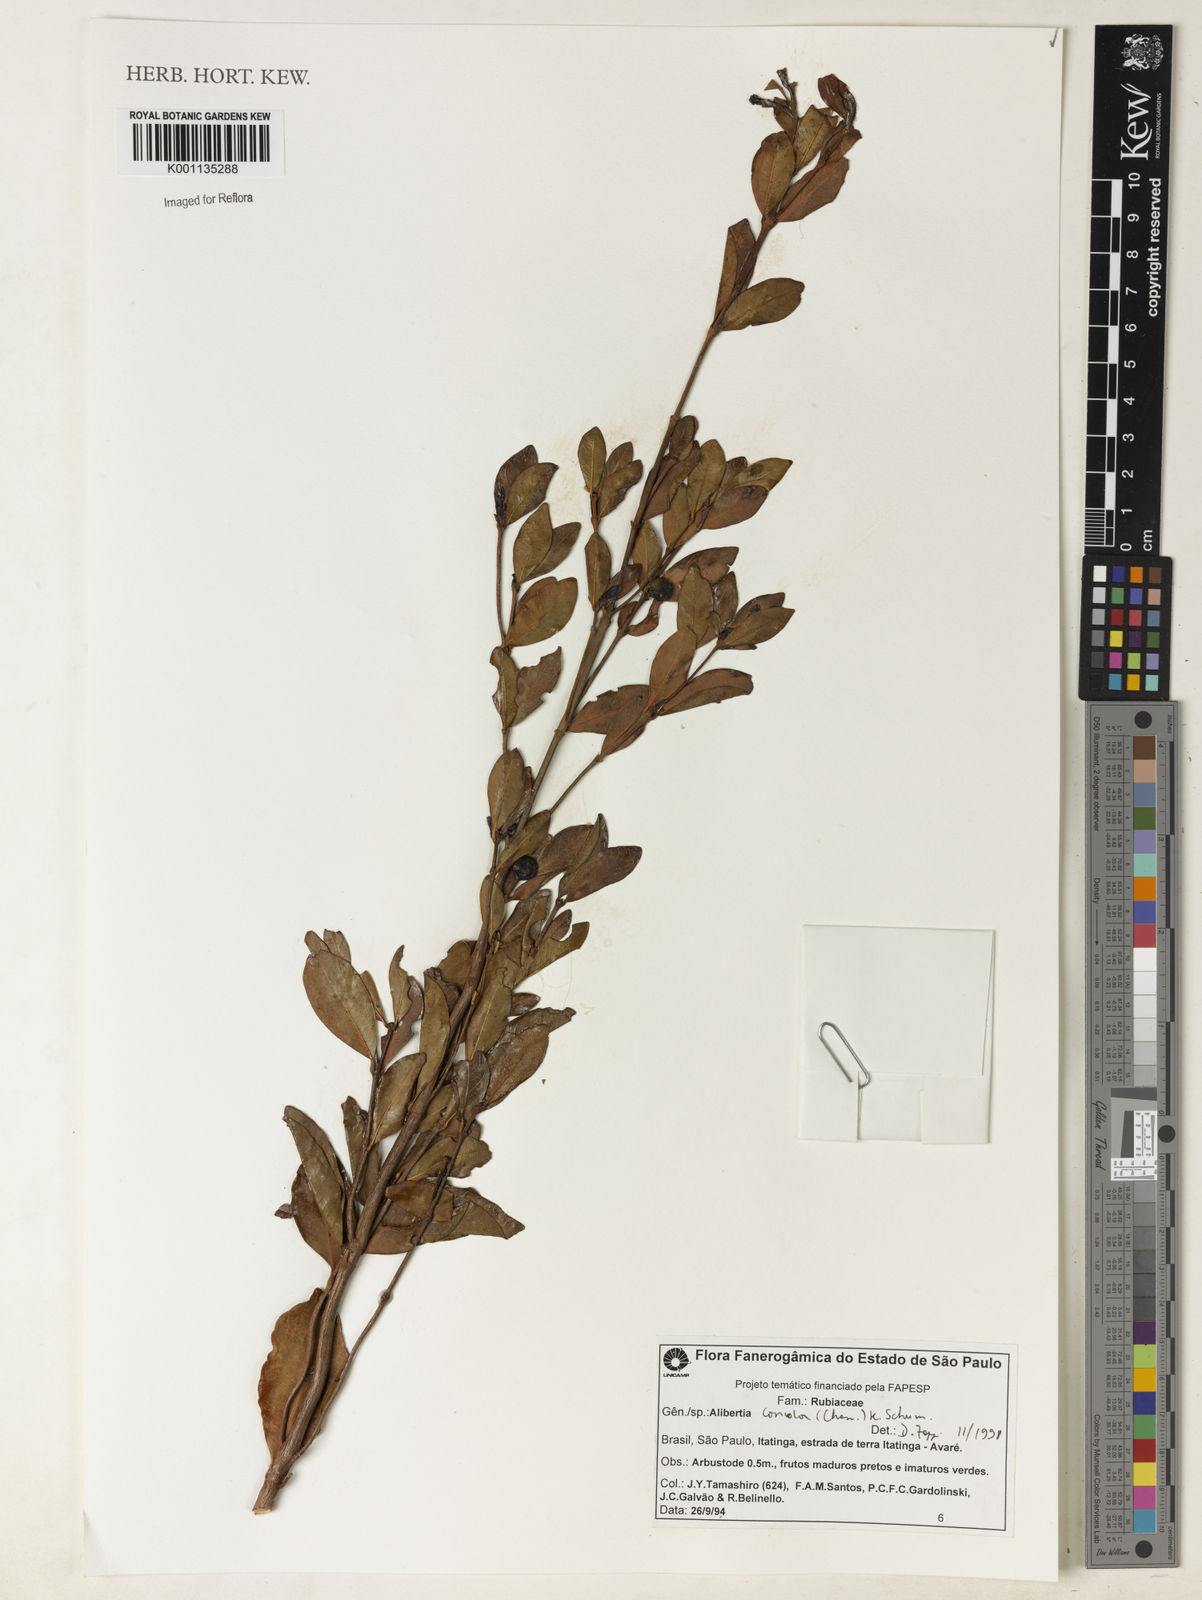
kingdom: Plantae
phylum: Tracheophyta
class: Magnoliopsida
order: Gentianales
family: Rubiaceae
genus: Cordiera
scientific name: Cordiera concolor
